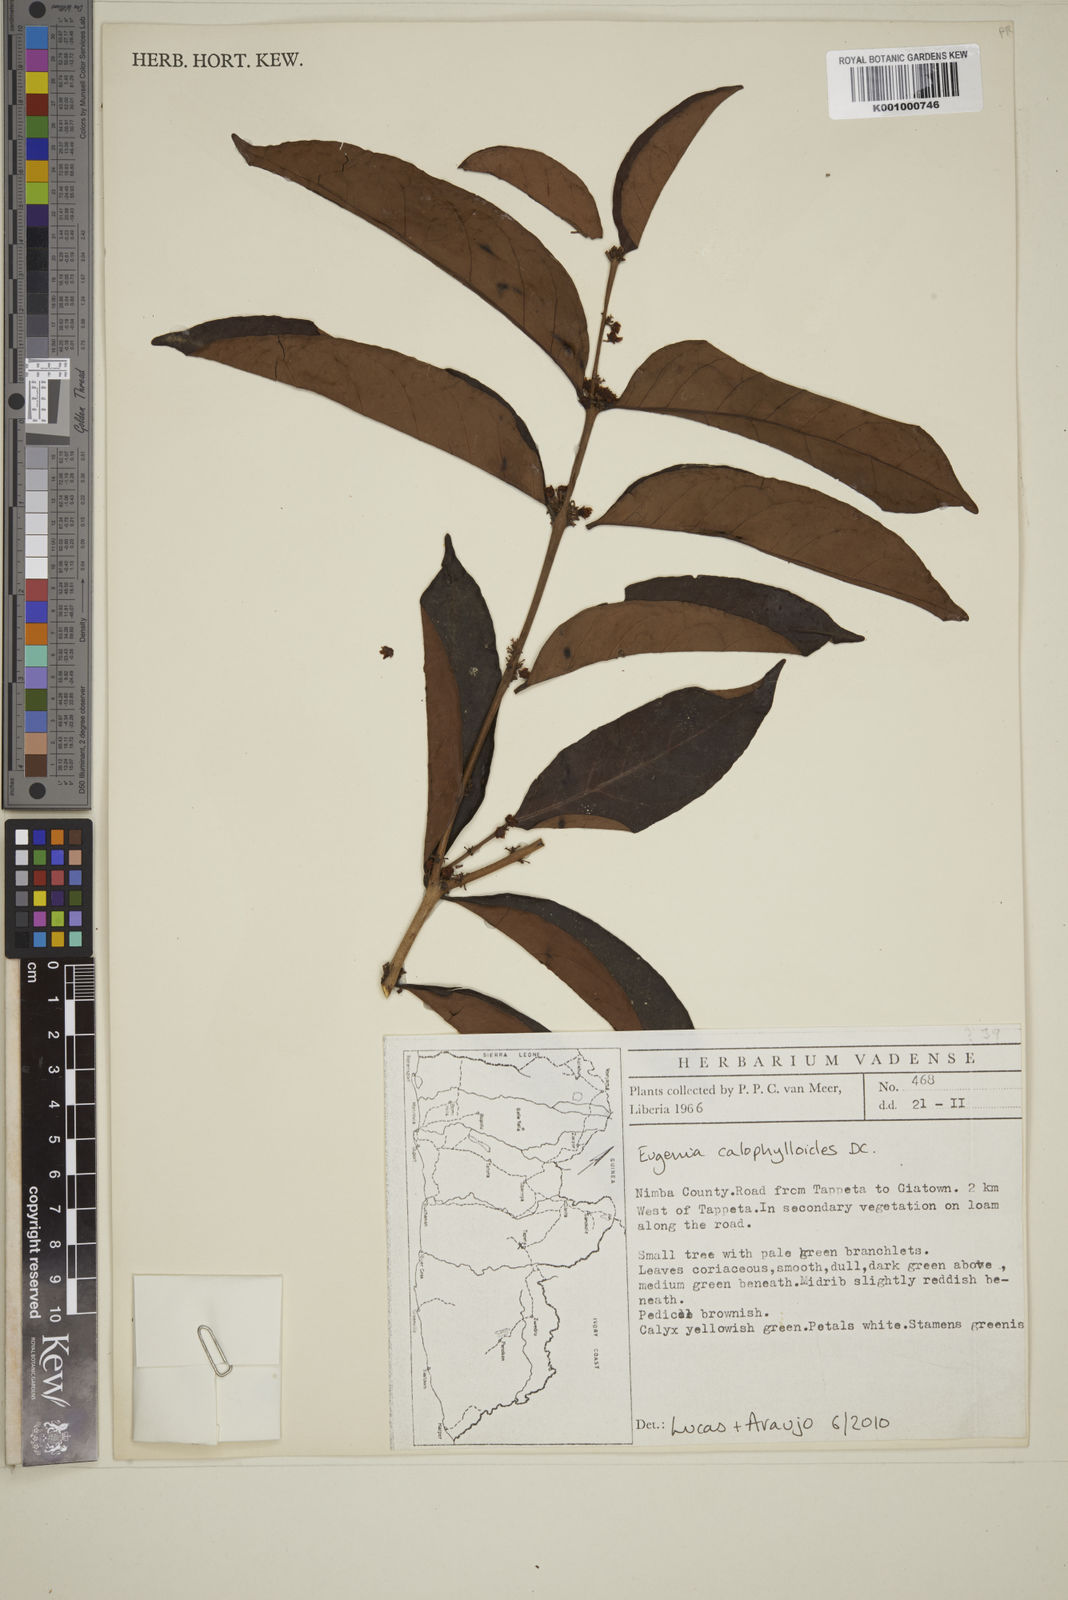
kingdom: Plantae
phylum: Tracheophyta
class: Magnoliopsida
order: Myrtales
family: Myrtaceae
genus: Eugenia
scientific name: Eugenia calophylloides
